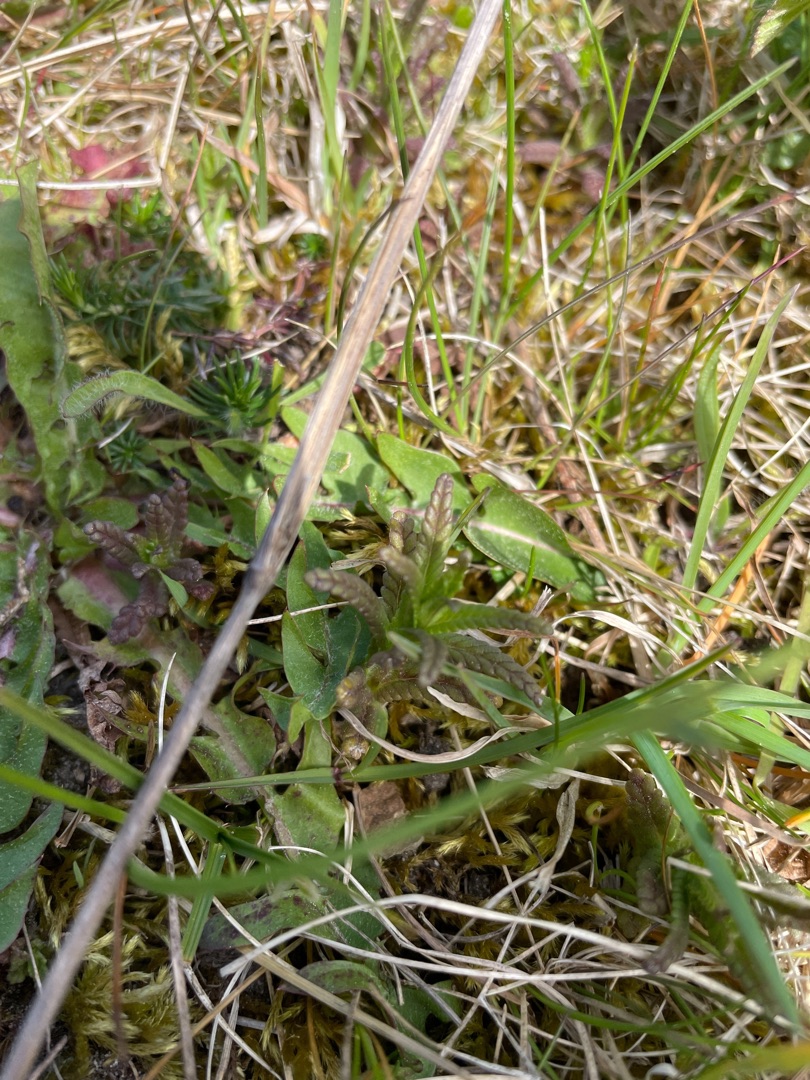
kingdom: Plantae
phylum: Tracheophyta
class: Magnoliopsida
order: Lamiales
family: Orobanchaceae
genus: Rhinanthus
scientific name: Rhinanthus
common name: Skjallerslægten
